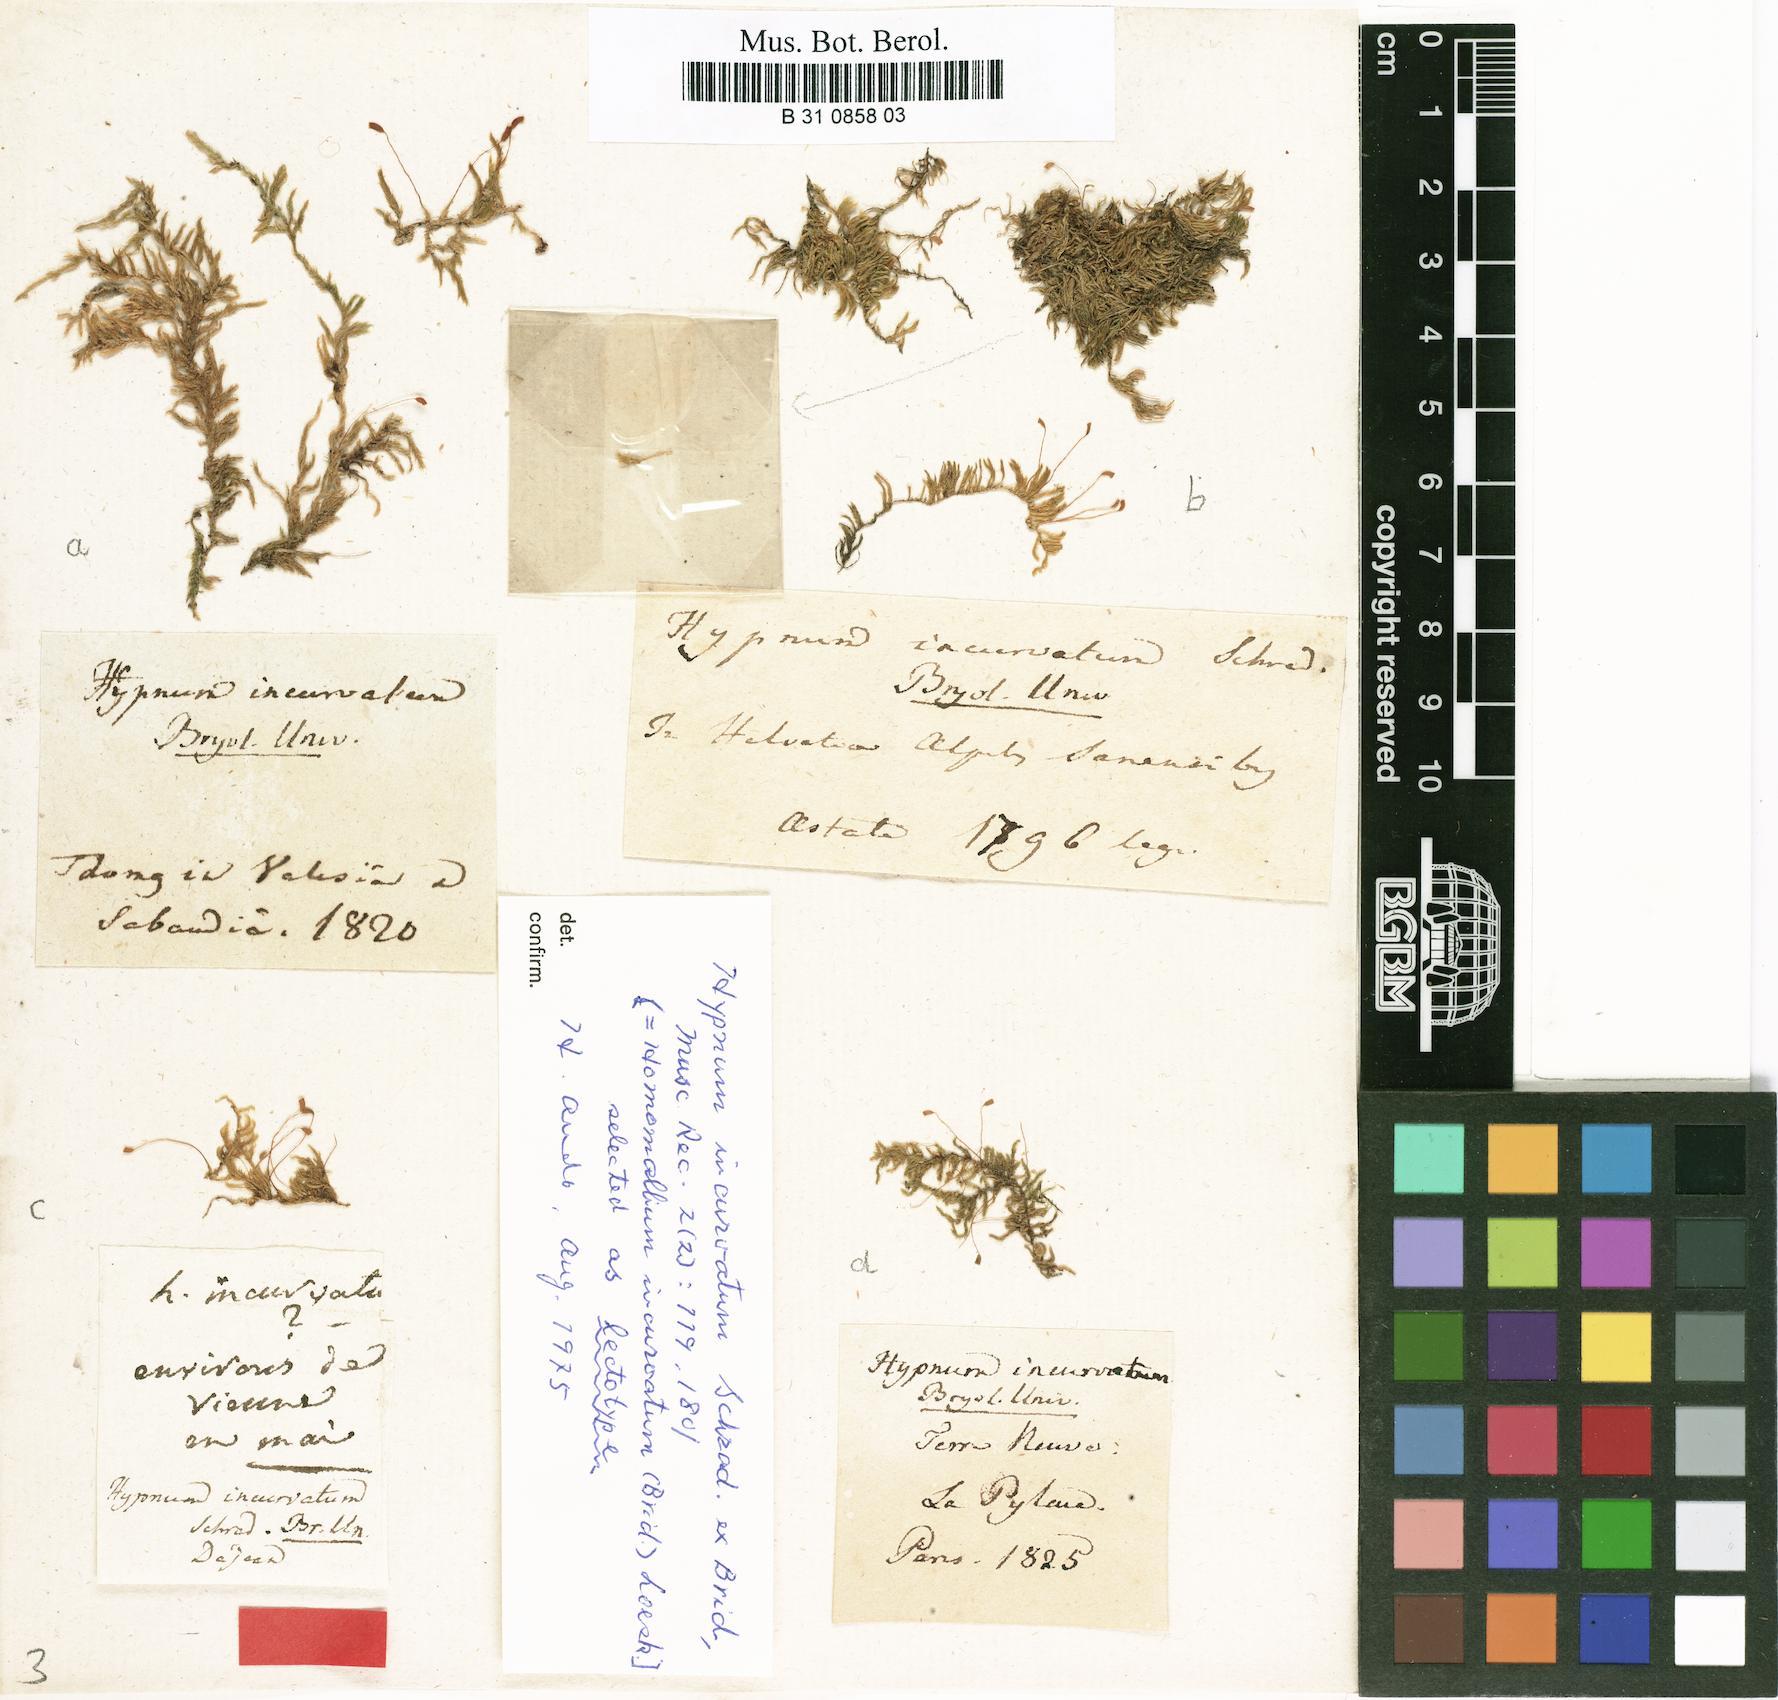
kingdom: Plantae
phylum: Bryophyta
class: Bryopsida
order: Hypnales
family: Pylaisiaceae
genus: Homomallium
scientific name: Homomallium incurvatum
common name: Incurved feather-moss
